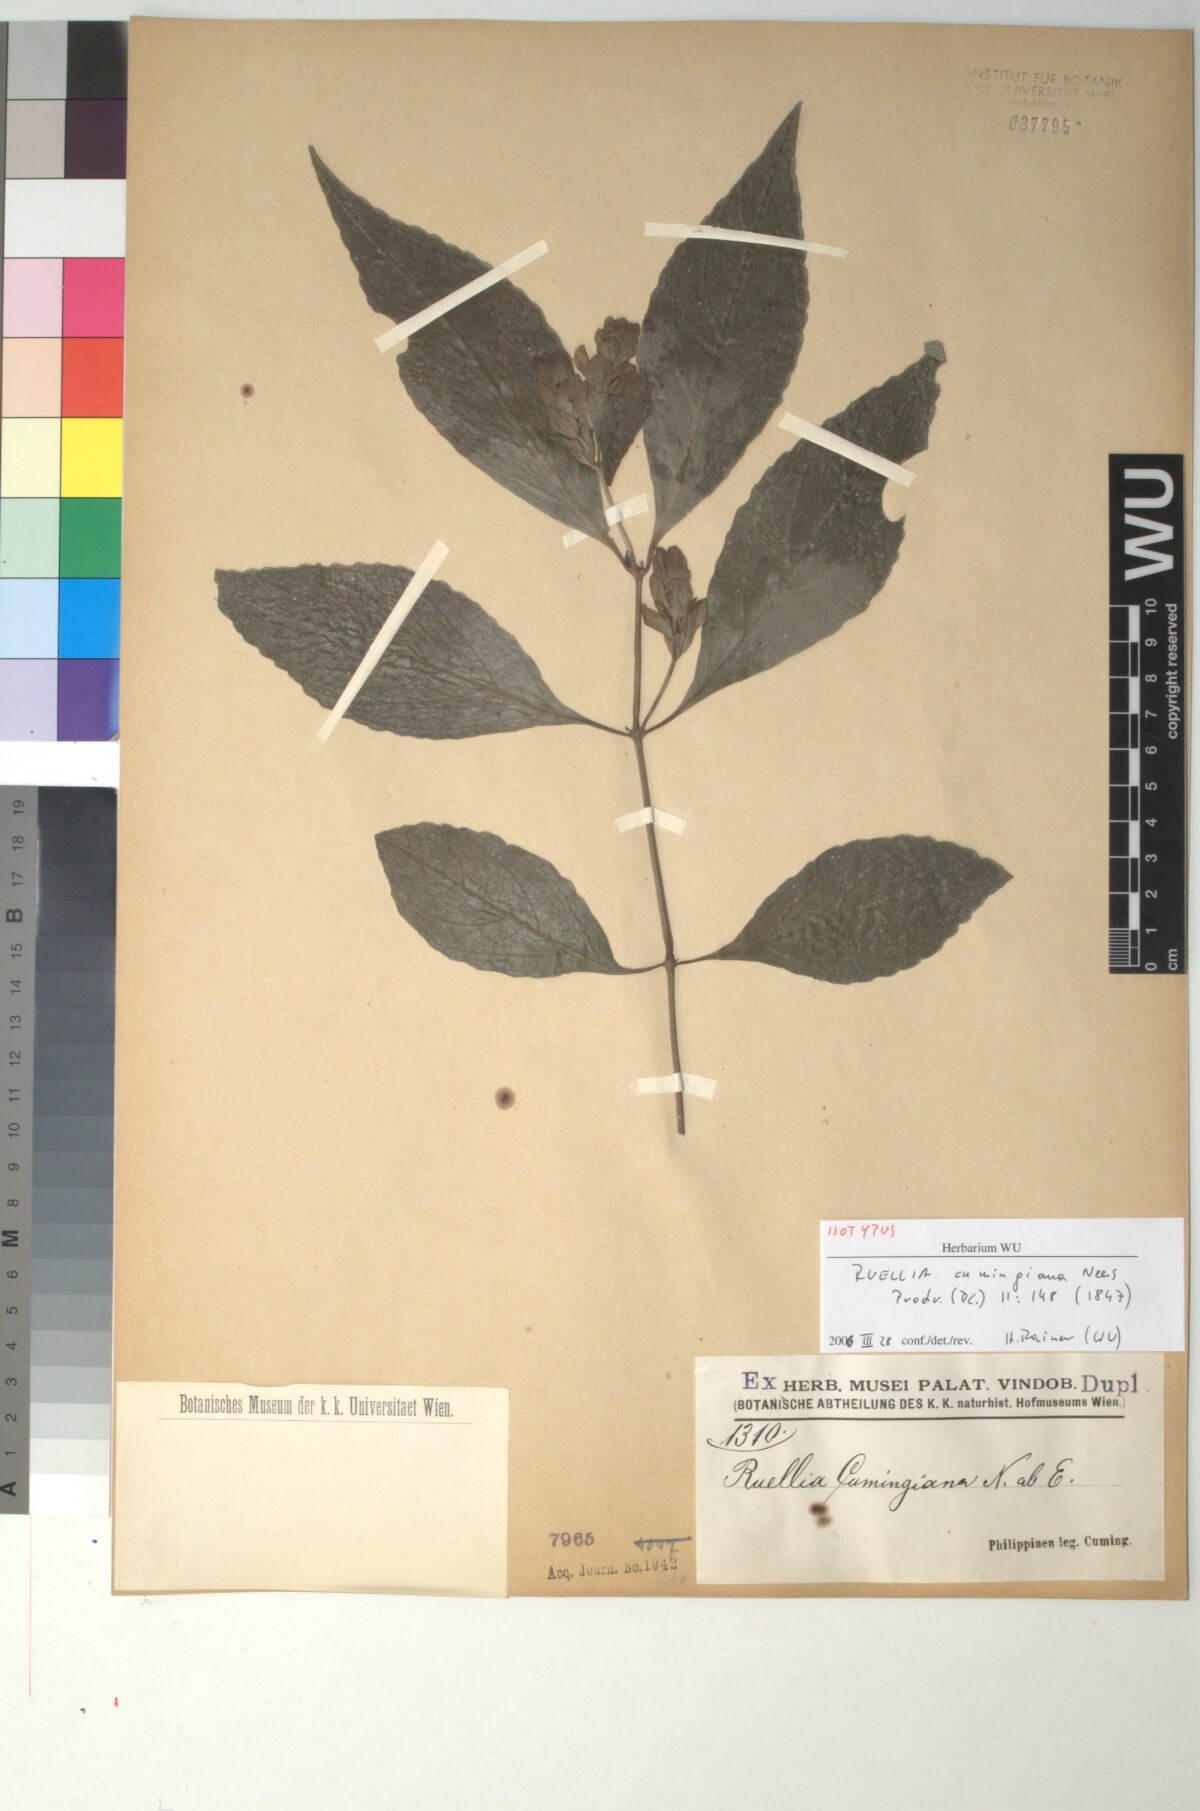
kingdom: Plantae
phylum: Tracheophyta
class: Magnoliopsida
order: Lamiales
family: Acanthaceae
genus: Strobilanthes
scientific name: Strobilanthes cumingiana
